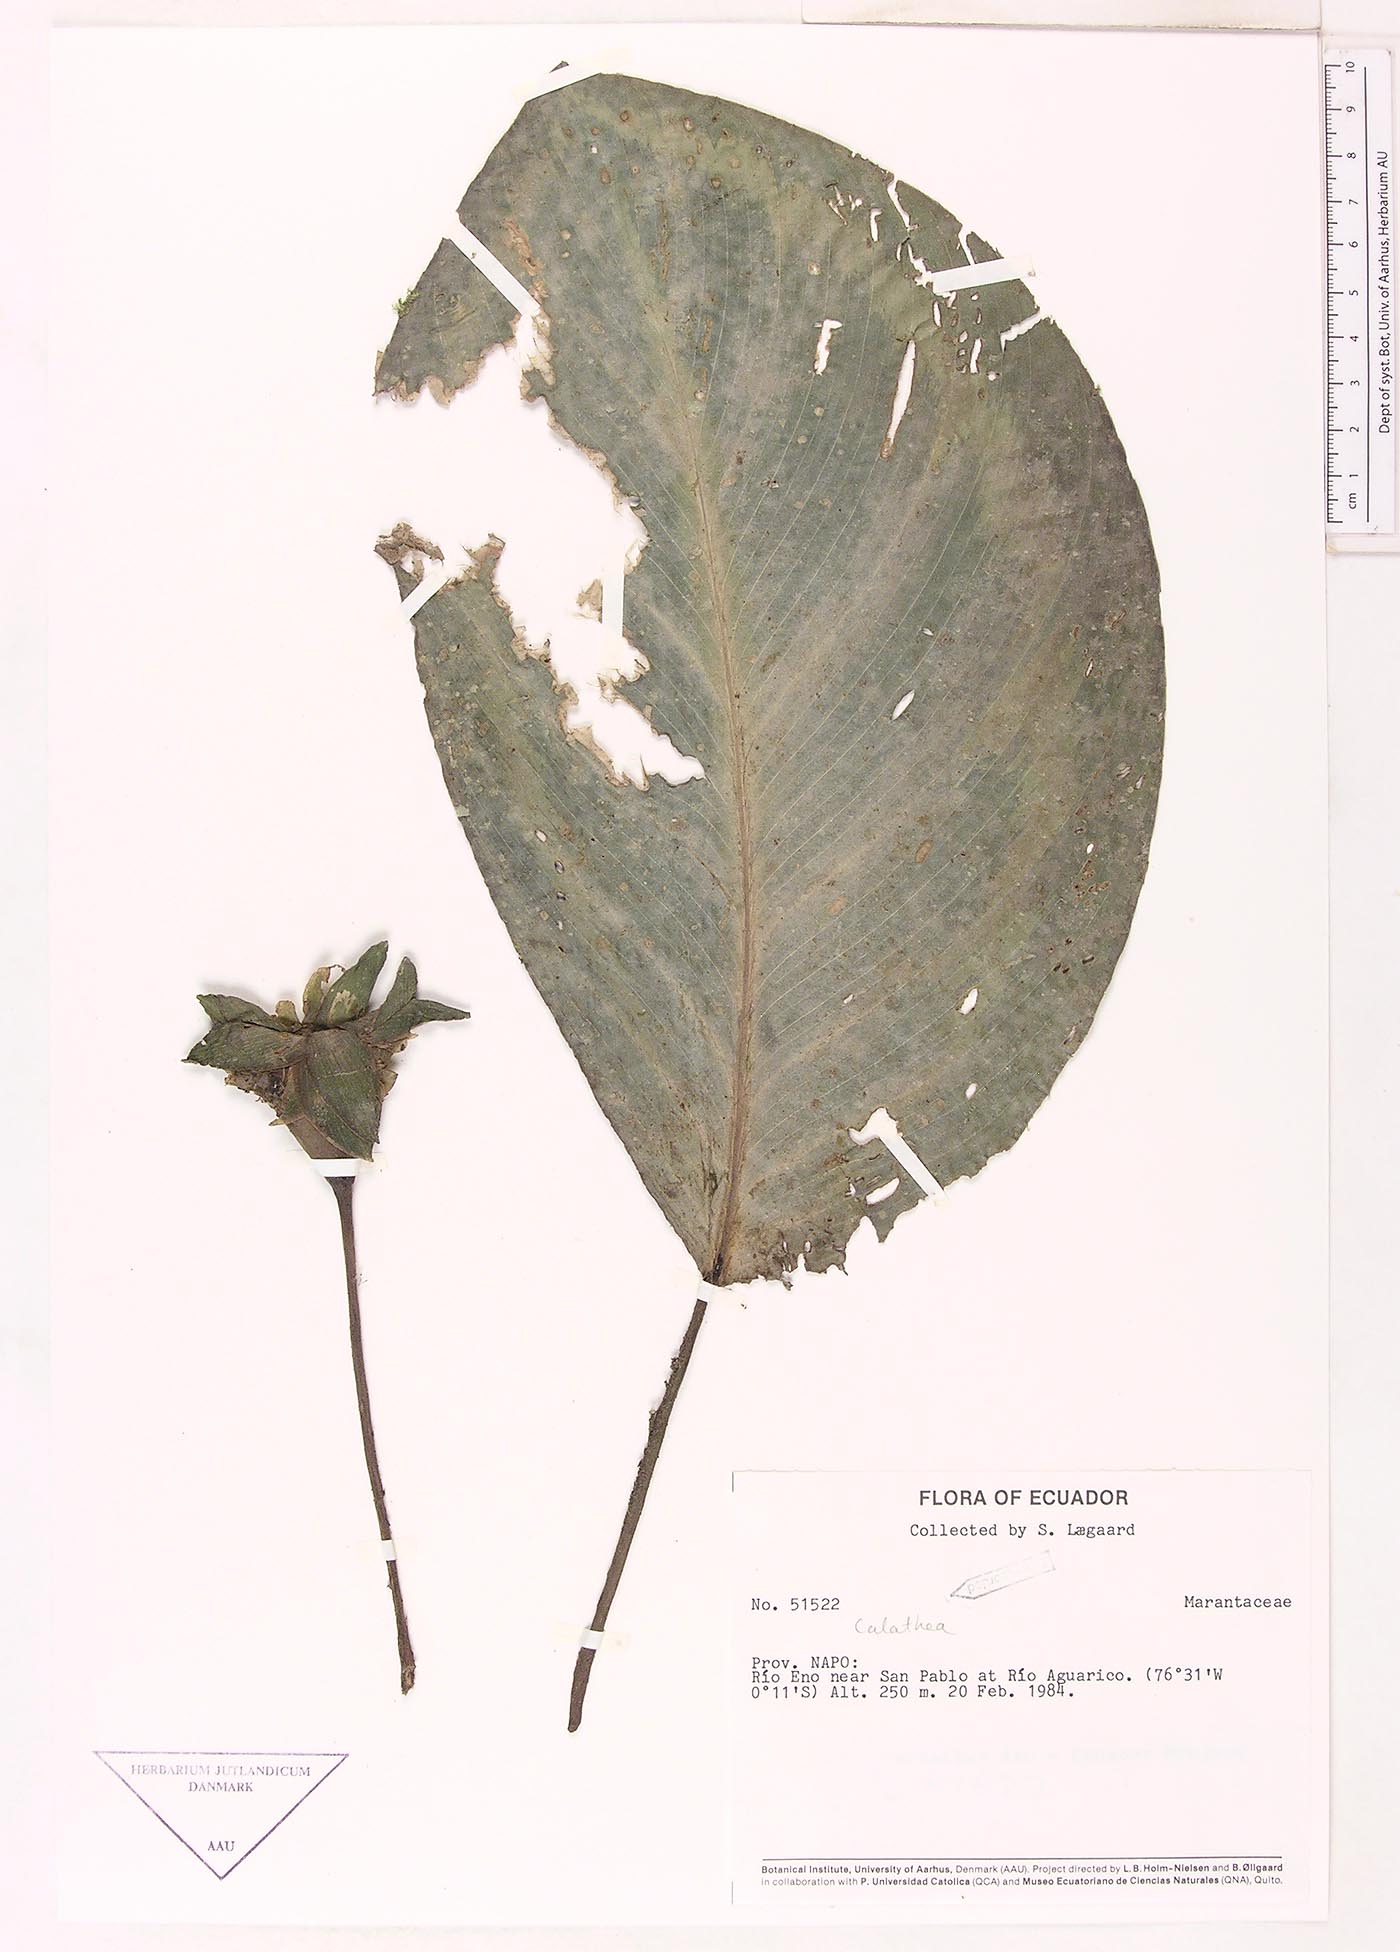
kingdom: Plantae
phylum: Tracheophyta
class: Magnoliopsida
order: Laurales
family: Lauraceae
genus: Goeppertia
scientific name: Goeppertia
